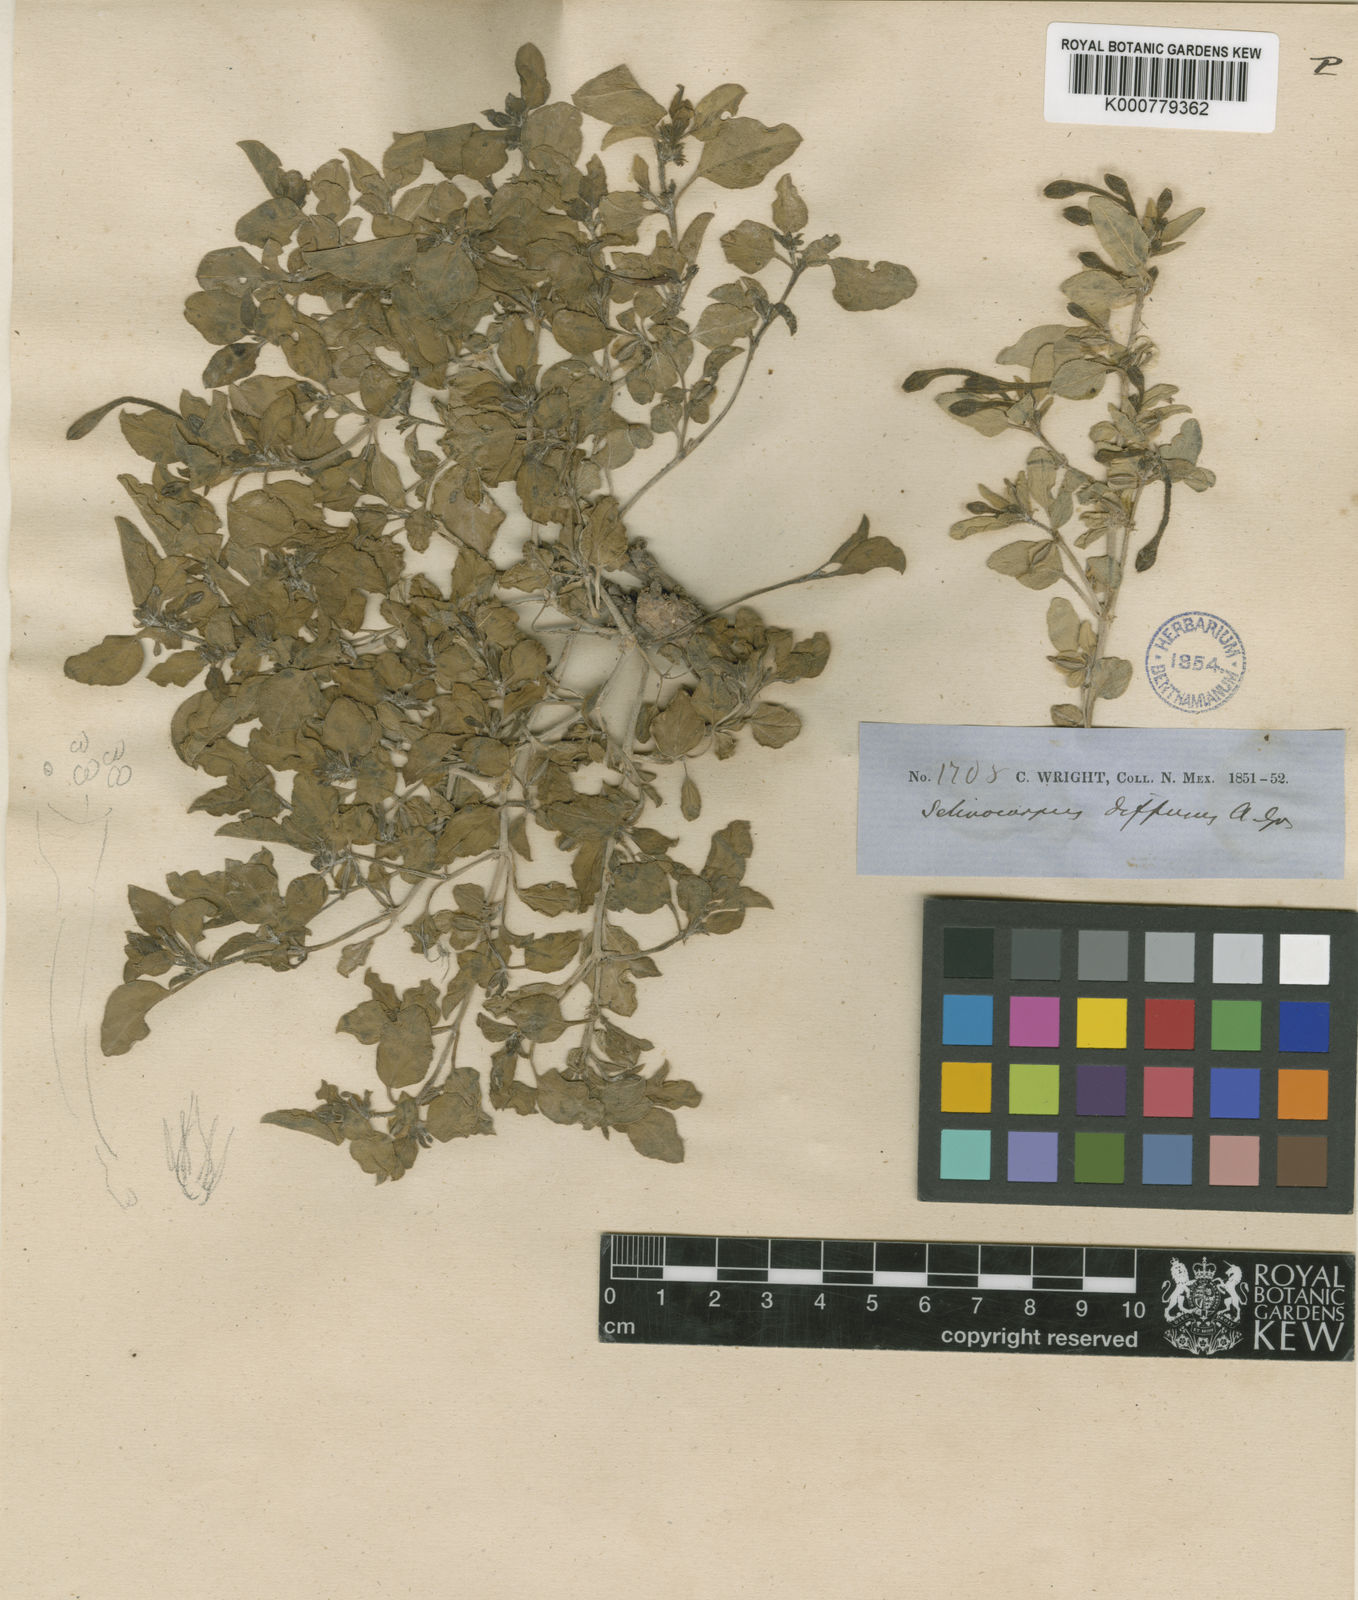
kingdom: Plantae
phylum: Tracheophyta
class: Magnoliopsida
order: Caryophyllales
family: Nyctaginaceae
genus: Acleisanthes
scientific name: Acleisanthes diffusa
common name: Spreading moonpod
